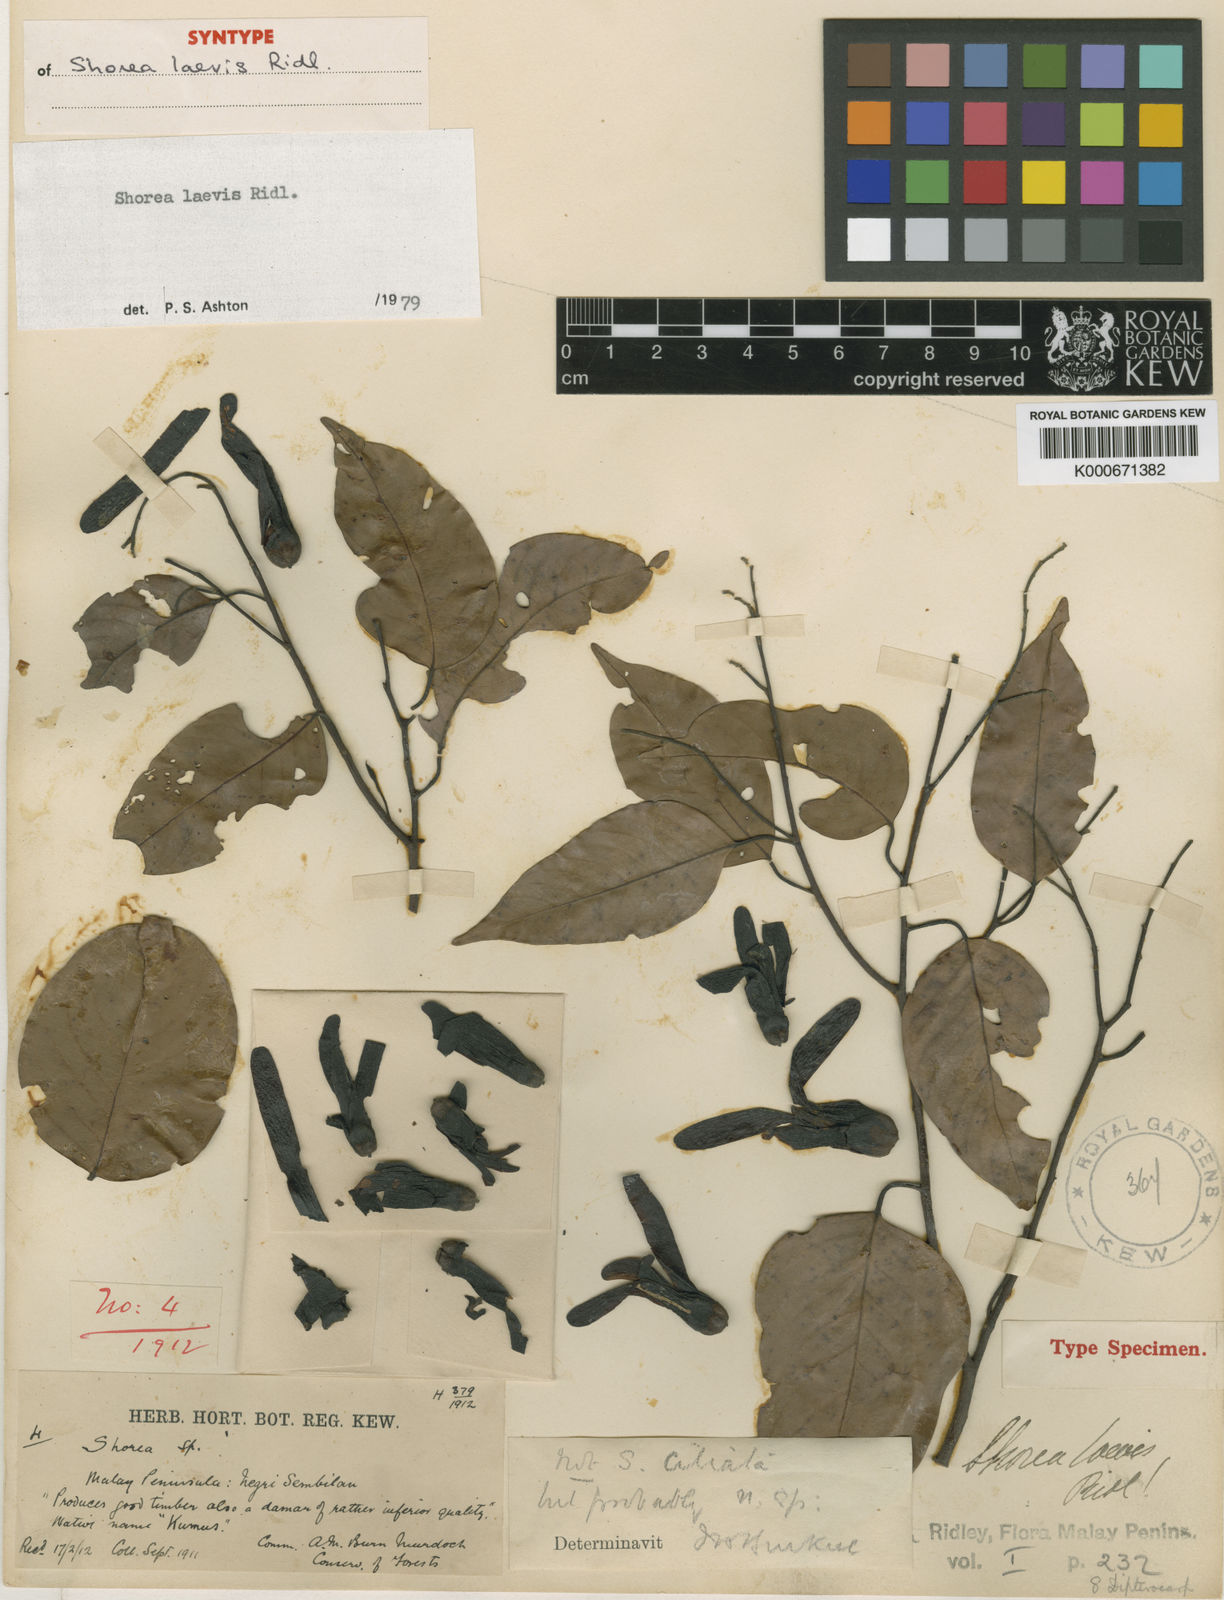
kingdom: Plantae
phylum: Tracheophyta
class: Magnoliopsida
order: Malvales
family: Dipterocarpaceae
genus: Shorea
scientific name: Shorea laevis
